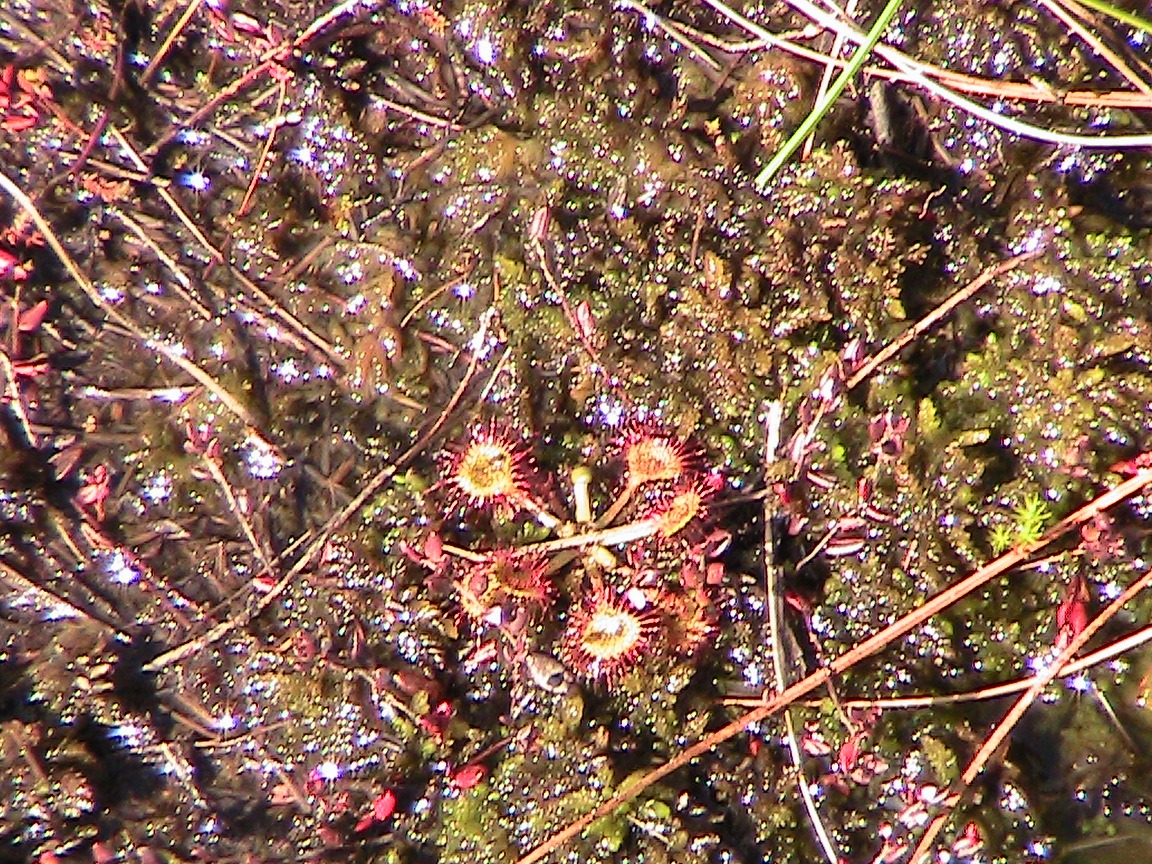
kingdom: Plantae
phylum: Tracheophyta
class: Magnoliopsida
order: Caryophyllales
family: Droseraceae
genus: Drosera
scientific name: Drosera rotundifolia
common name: Rundbladet soldug
